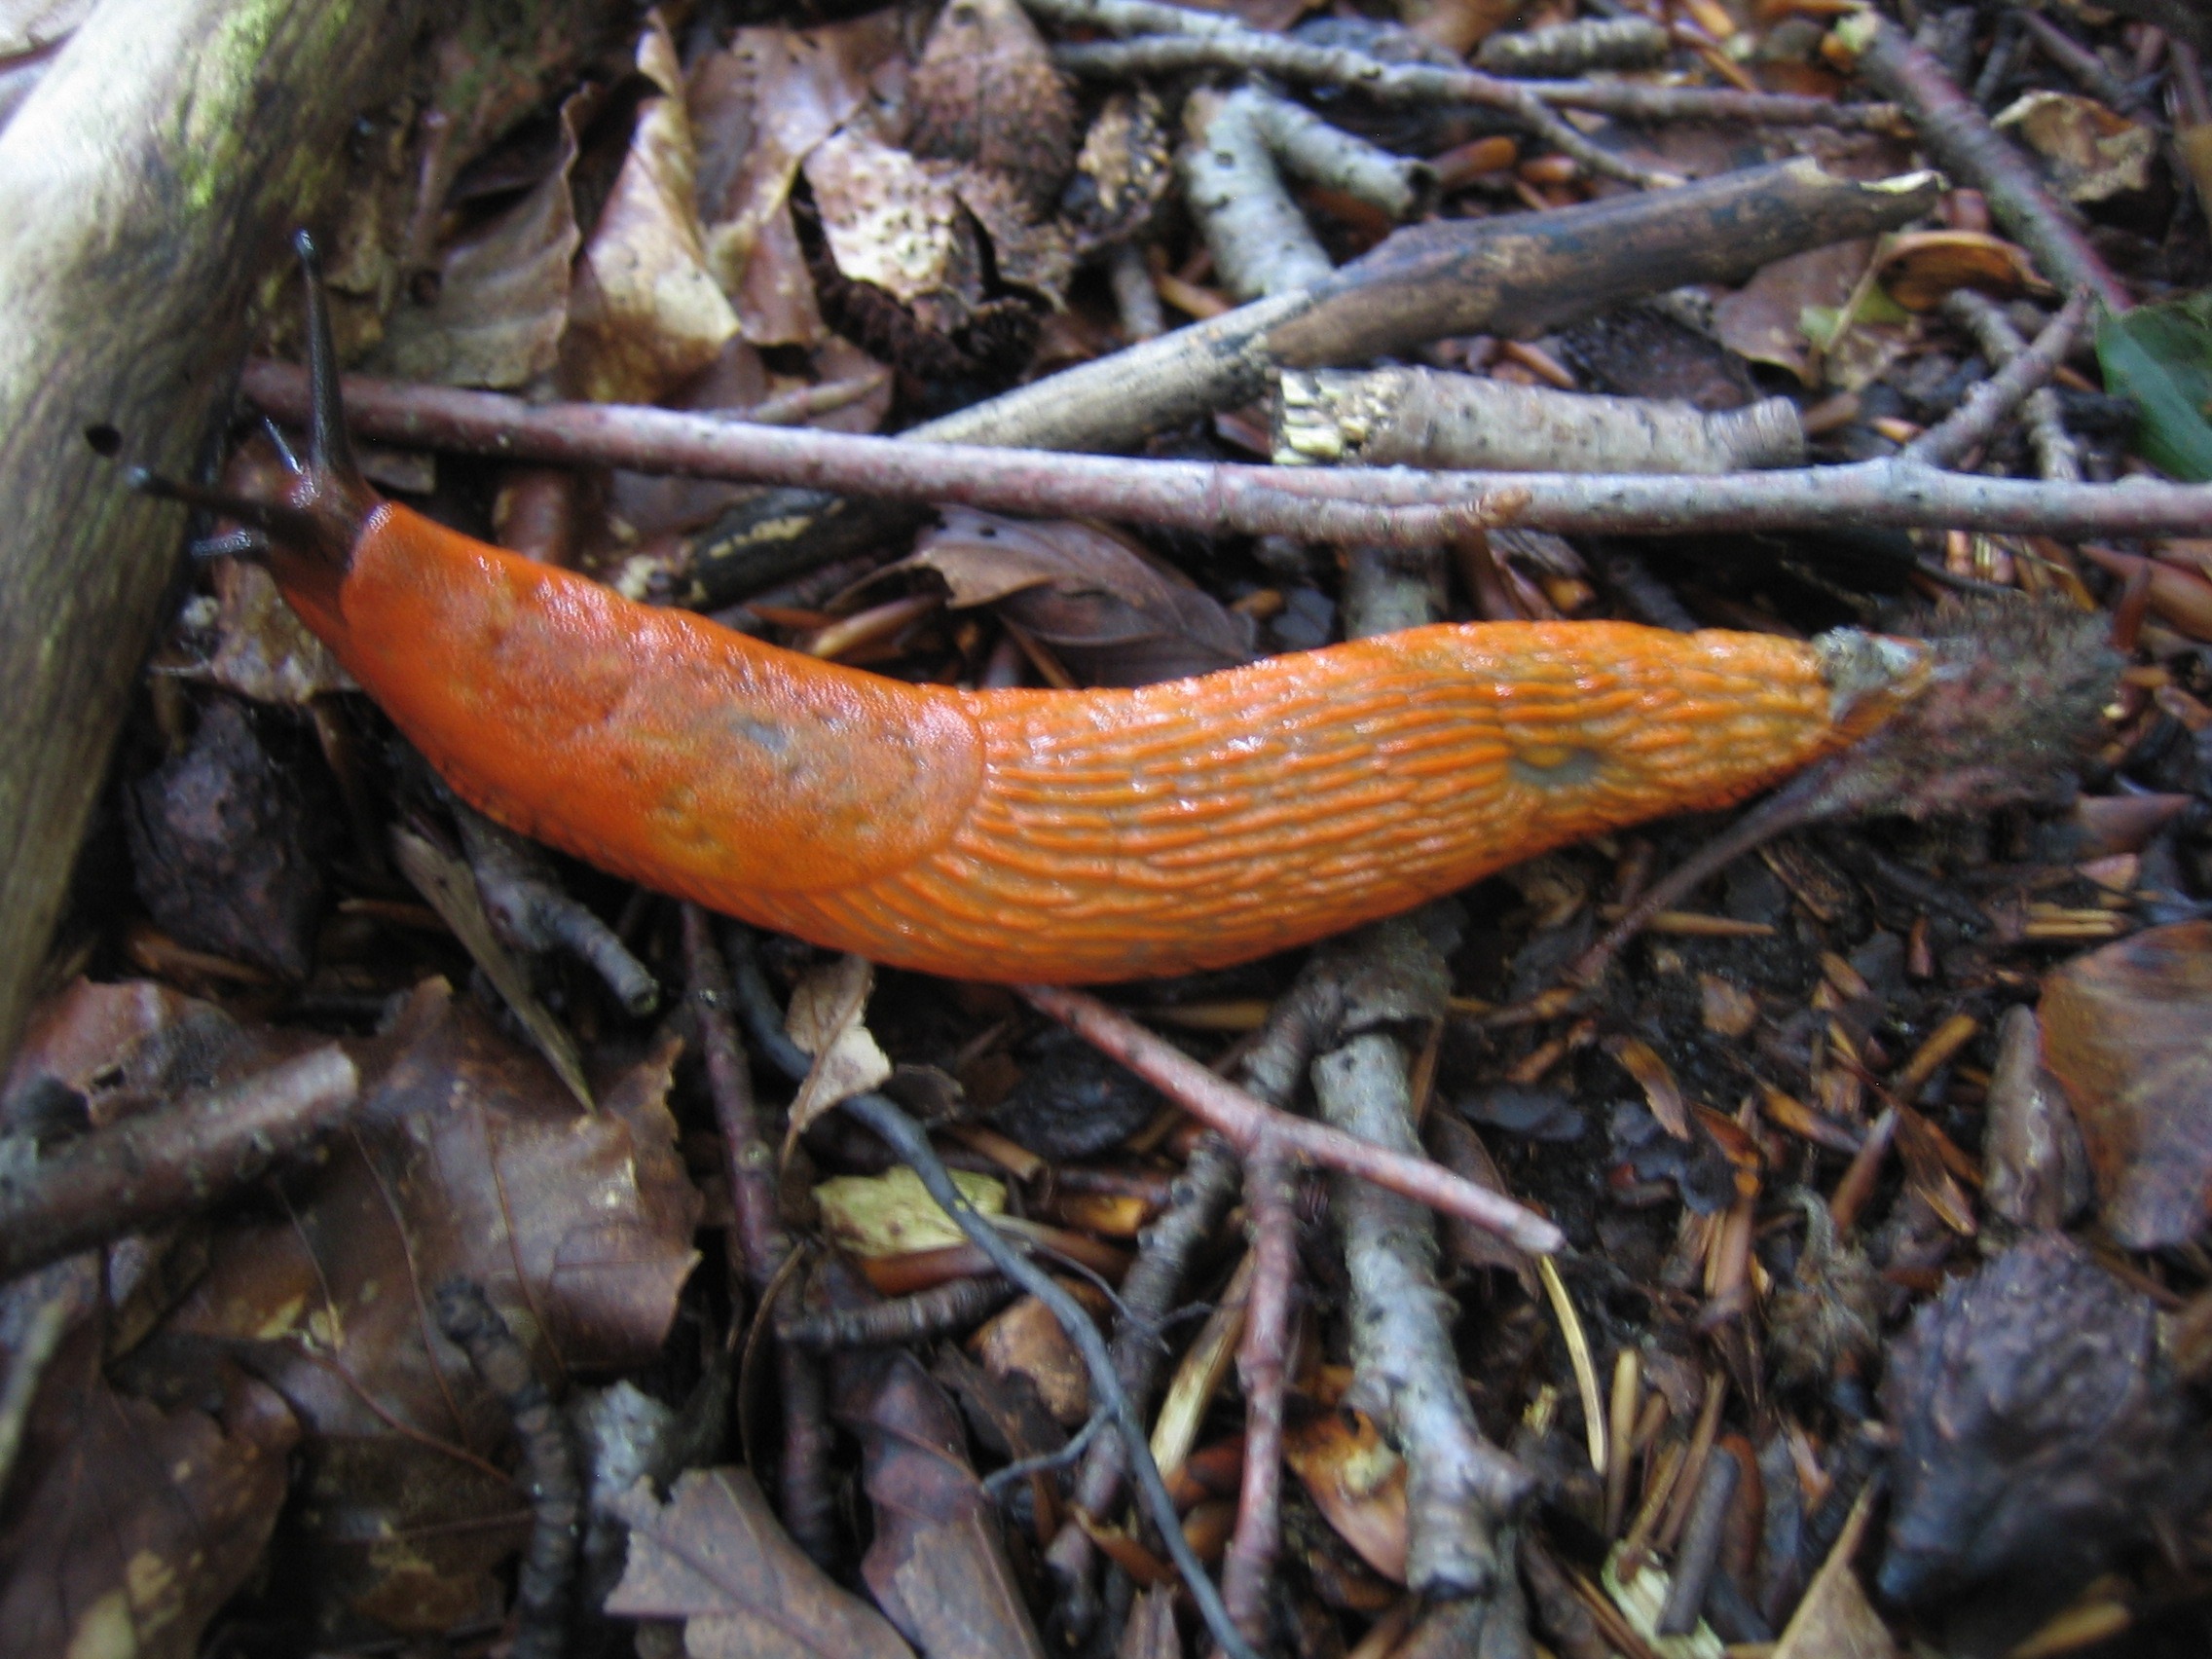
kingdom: Animalia
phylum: Mollusca
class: Gastropoda
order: Stylommatophora
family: Arionidae
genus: Arion
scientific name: Arion rufus
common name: Rød skovsnegl
